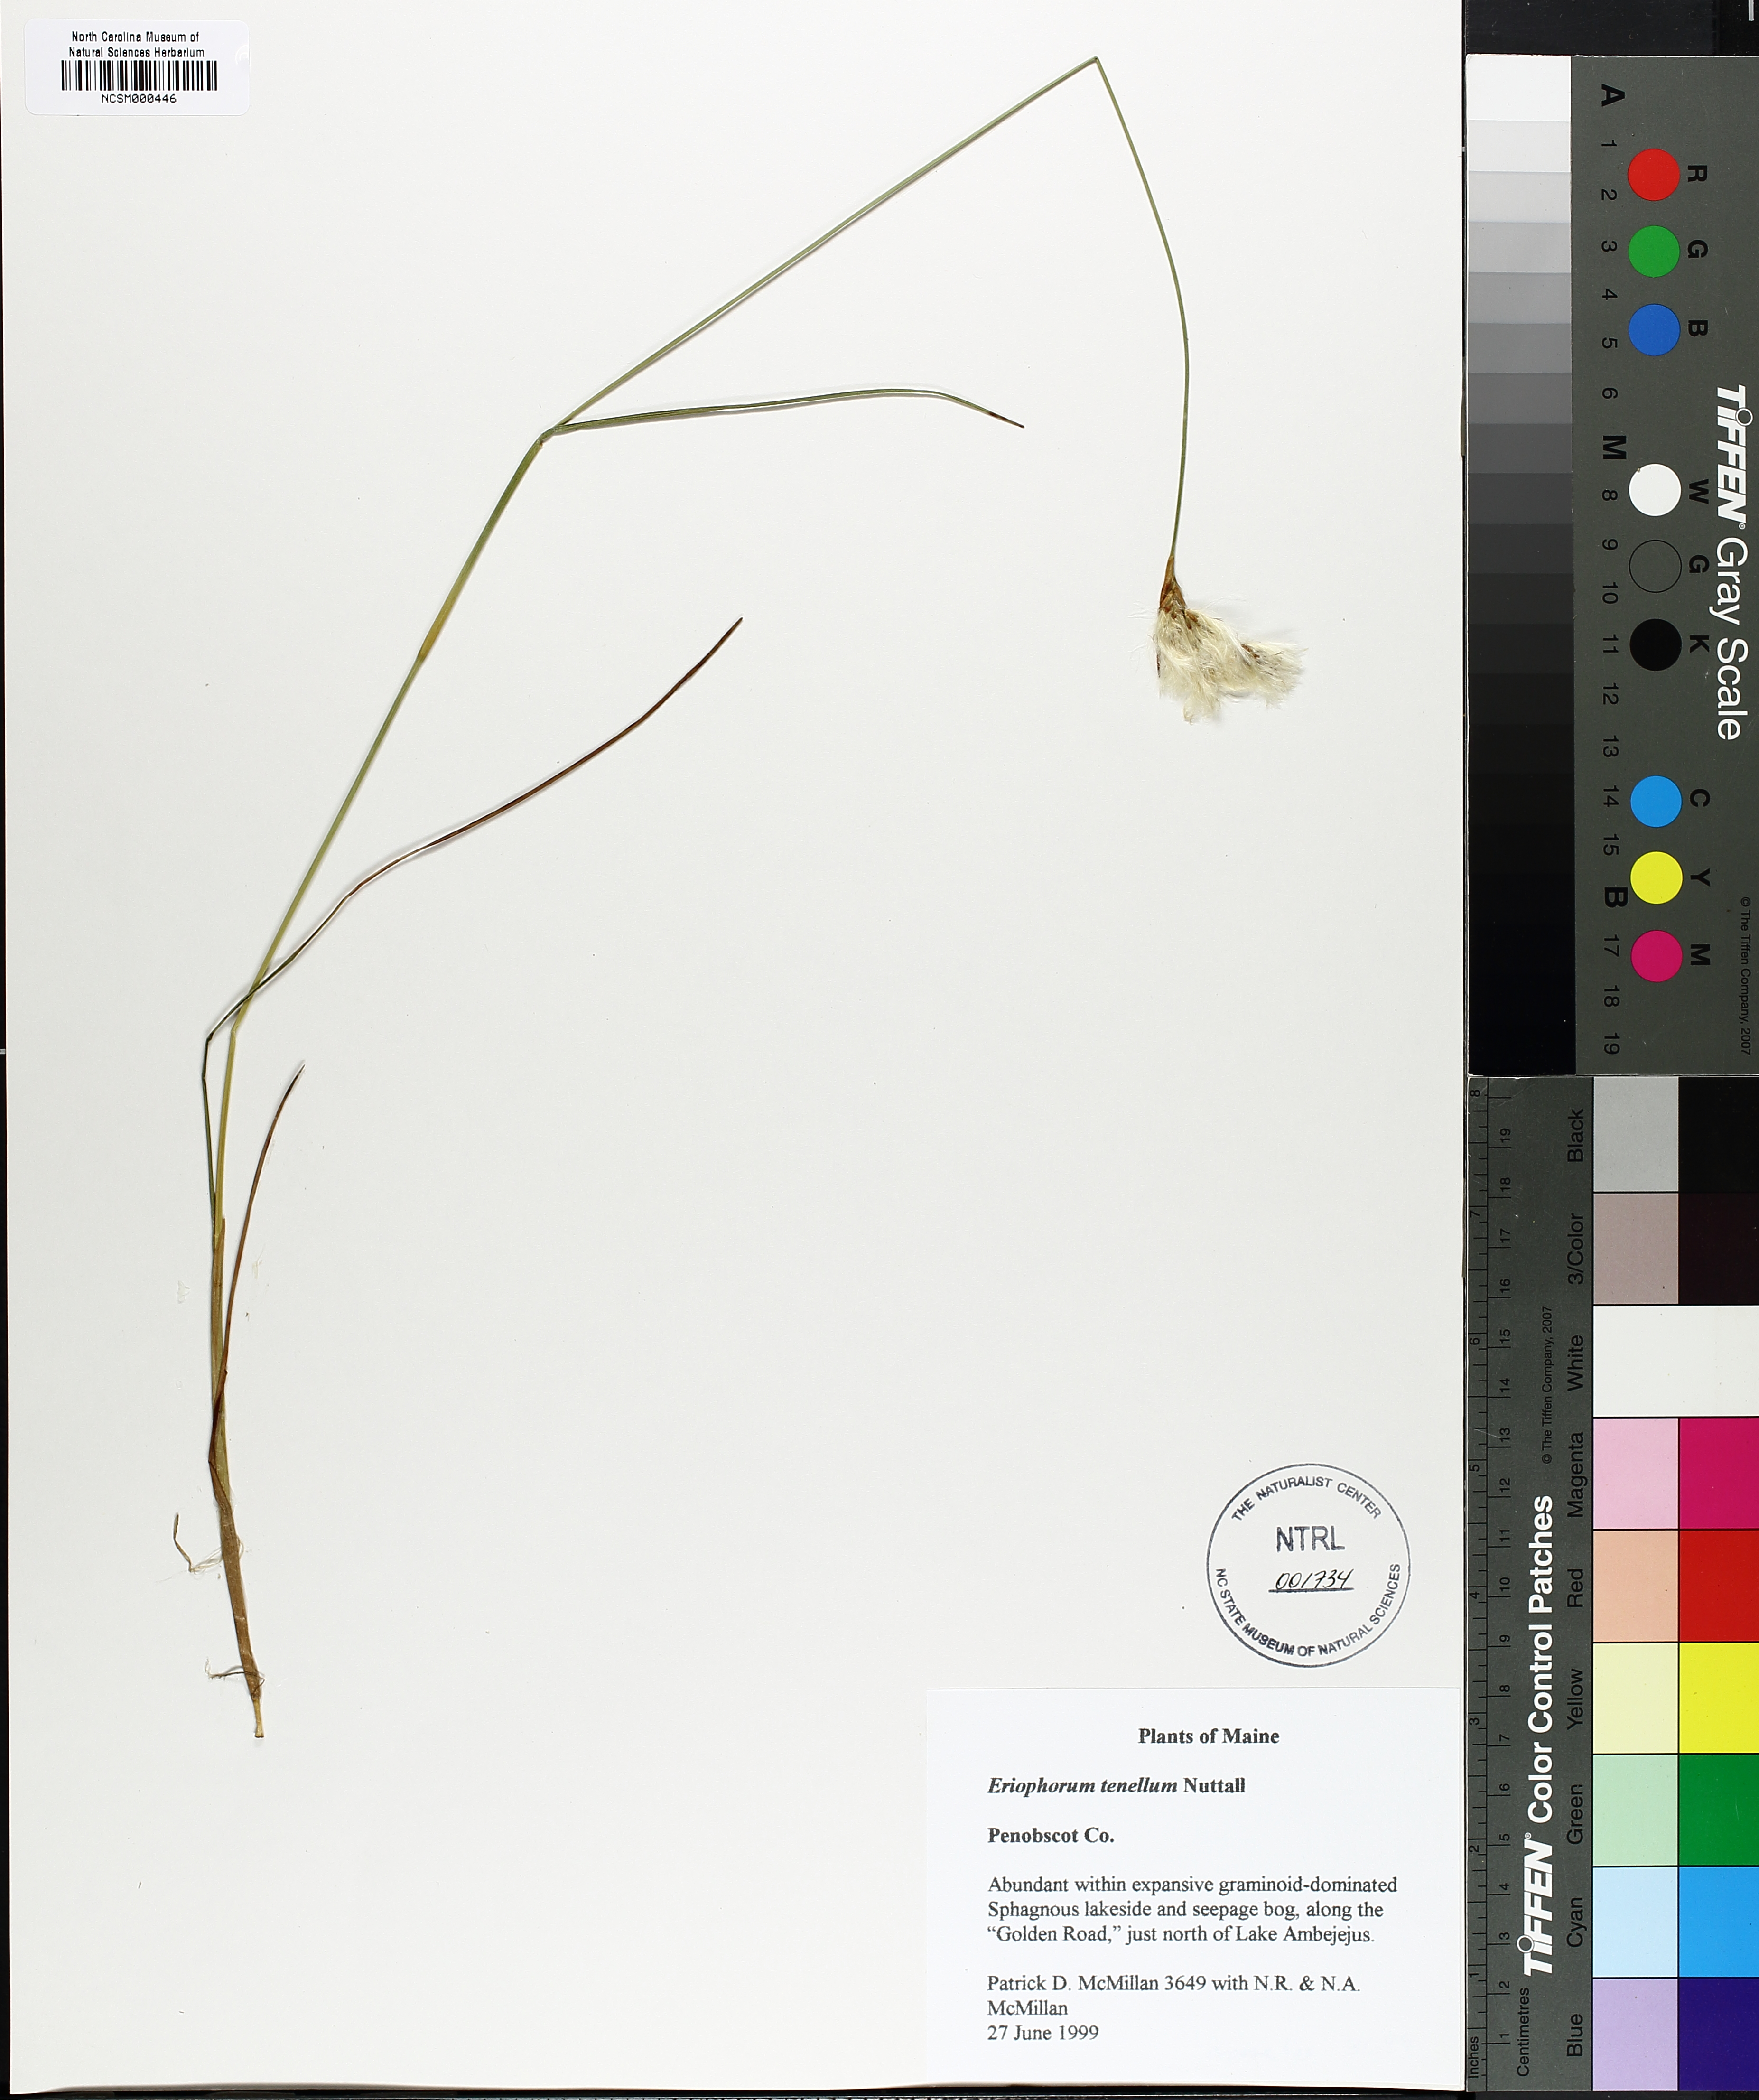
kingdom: Plantae
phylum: Tracheophyta
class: Liliopsida
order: Poales
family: Cyperaceae
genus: Eriophorum
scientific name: Eriophorum tenellum
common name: Few-nerved cottongrass
